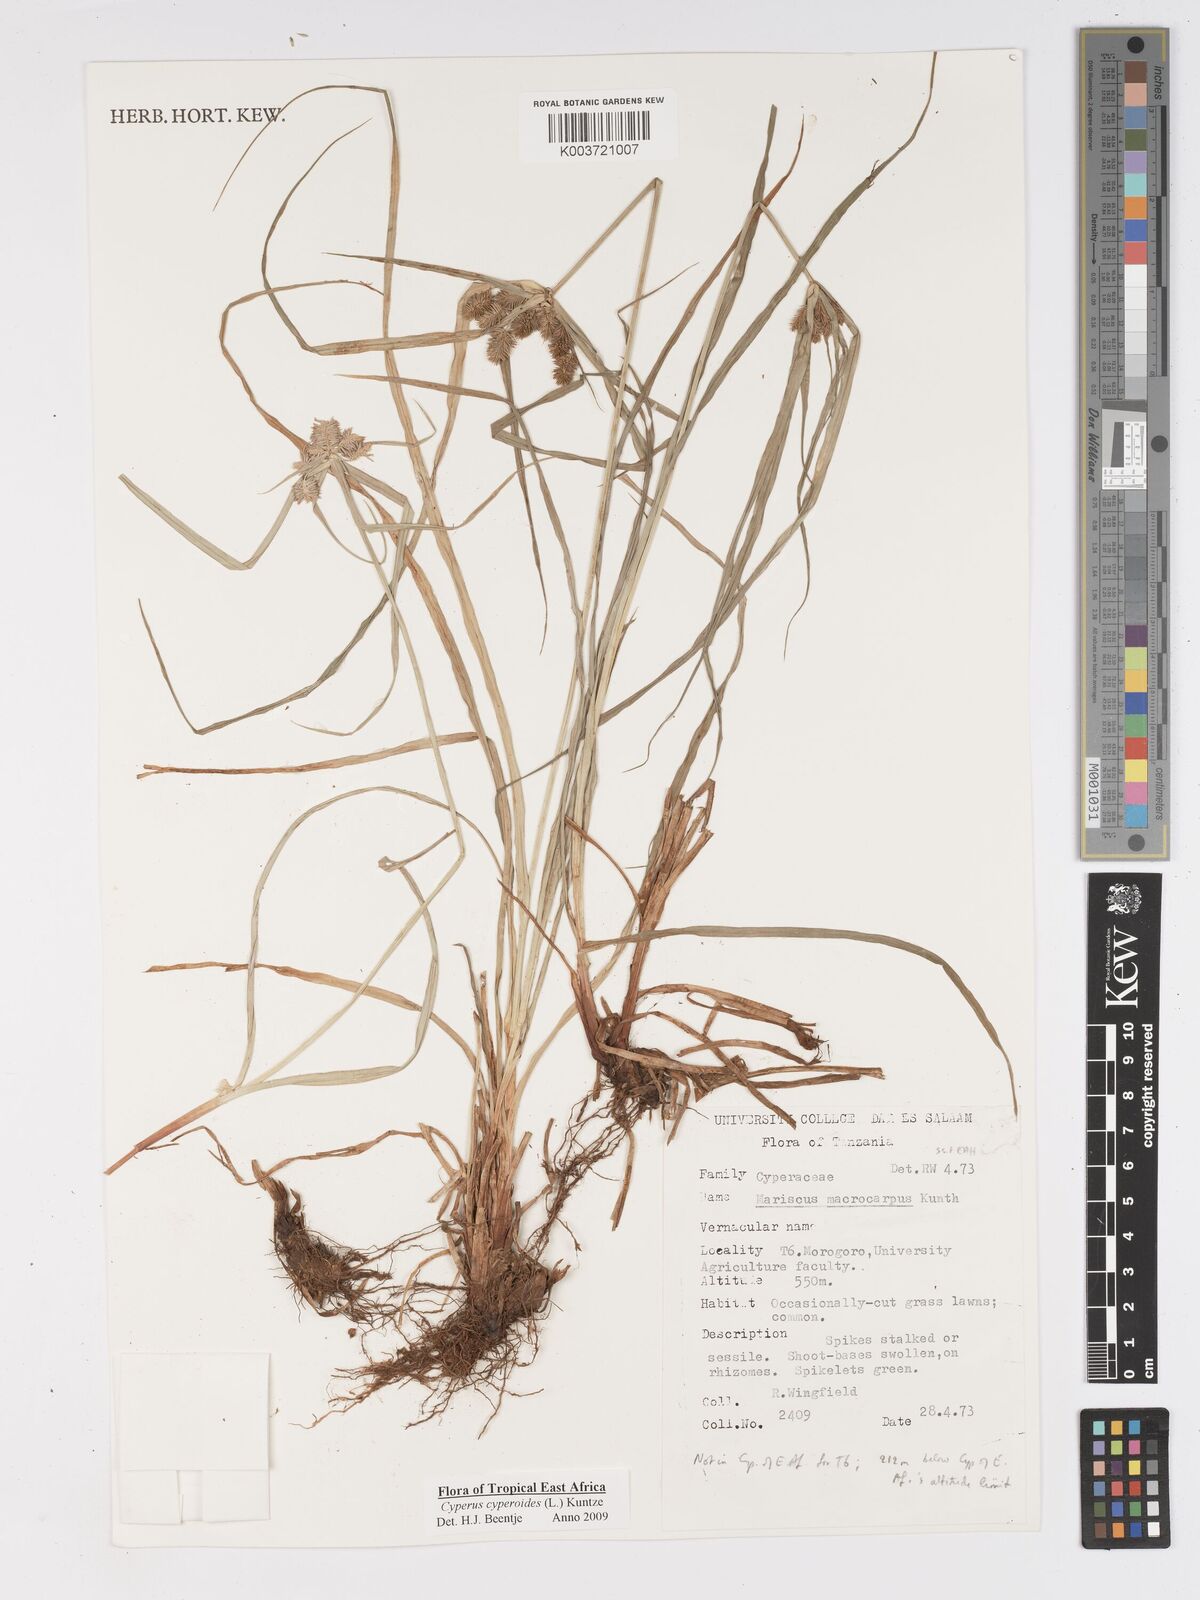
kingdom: Plantae
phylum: Tracheophyta
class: Liliopsida
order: Poales
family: Cyperaceae
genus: Cyperus
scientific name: Cyperus cyperoides
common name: Pacific island flat sedge
